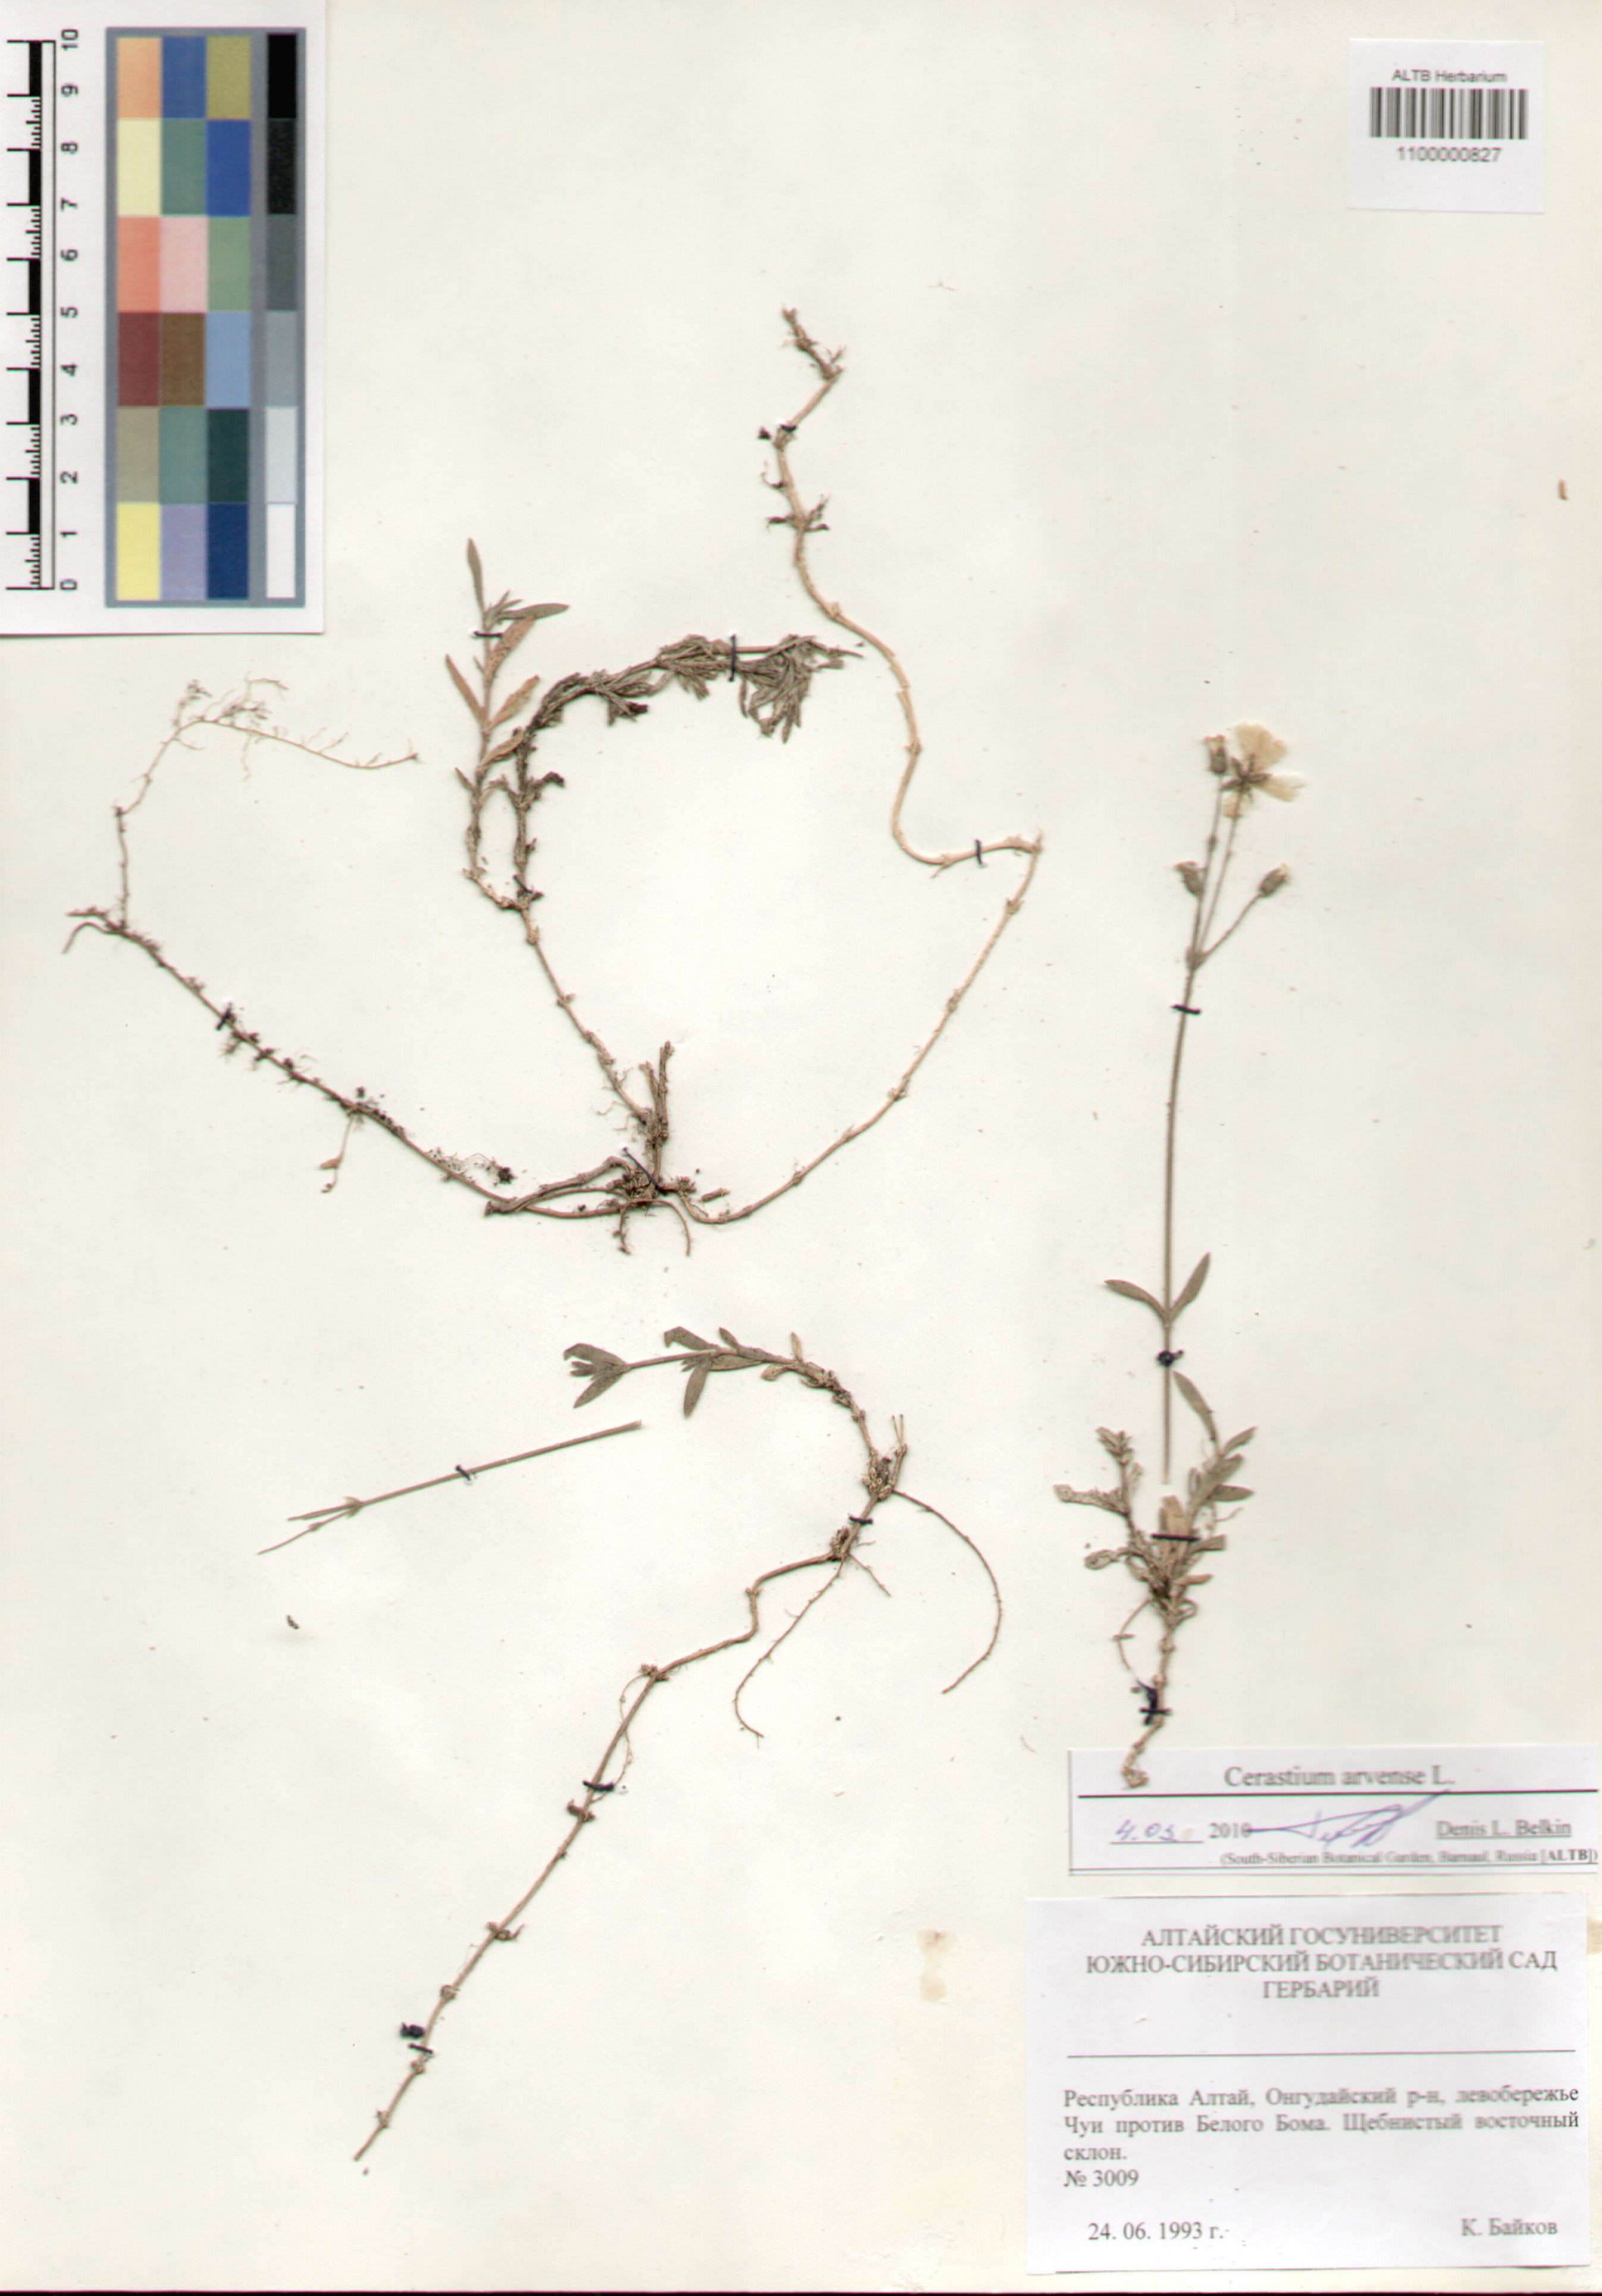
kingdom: Plantae
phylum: Tracheophyta
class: Magnoliopsida
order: Caryophyllales
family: Caryophyllaceae
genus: Cerastium
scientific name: Cerastium arvense
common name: Field mouse-ear
